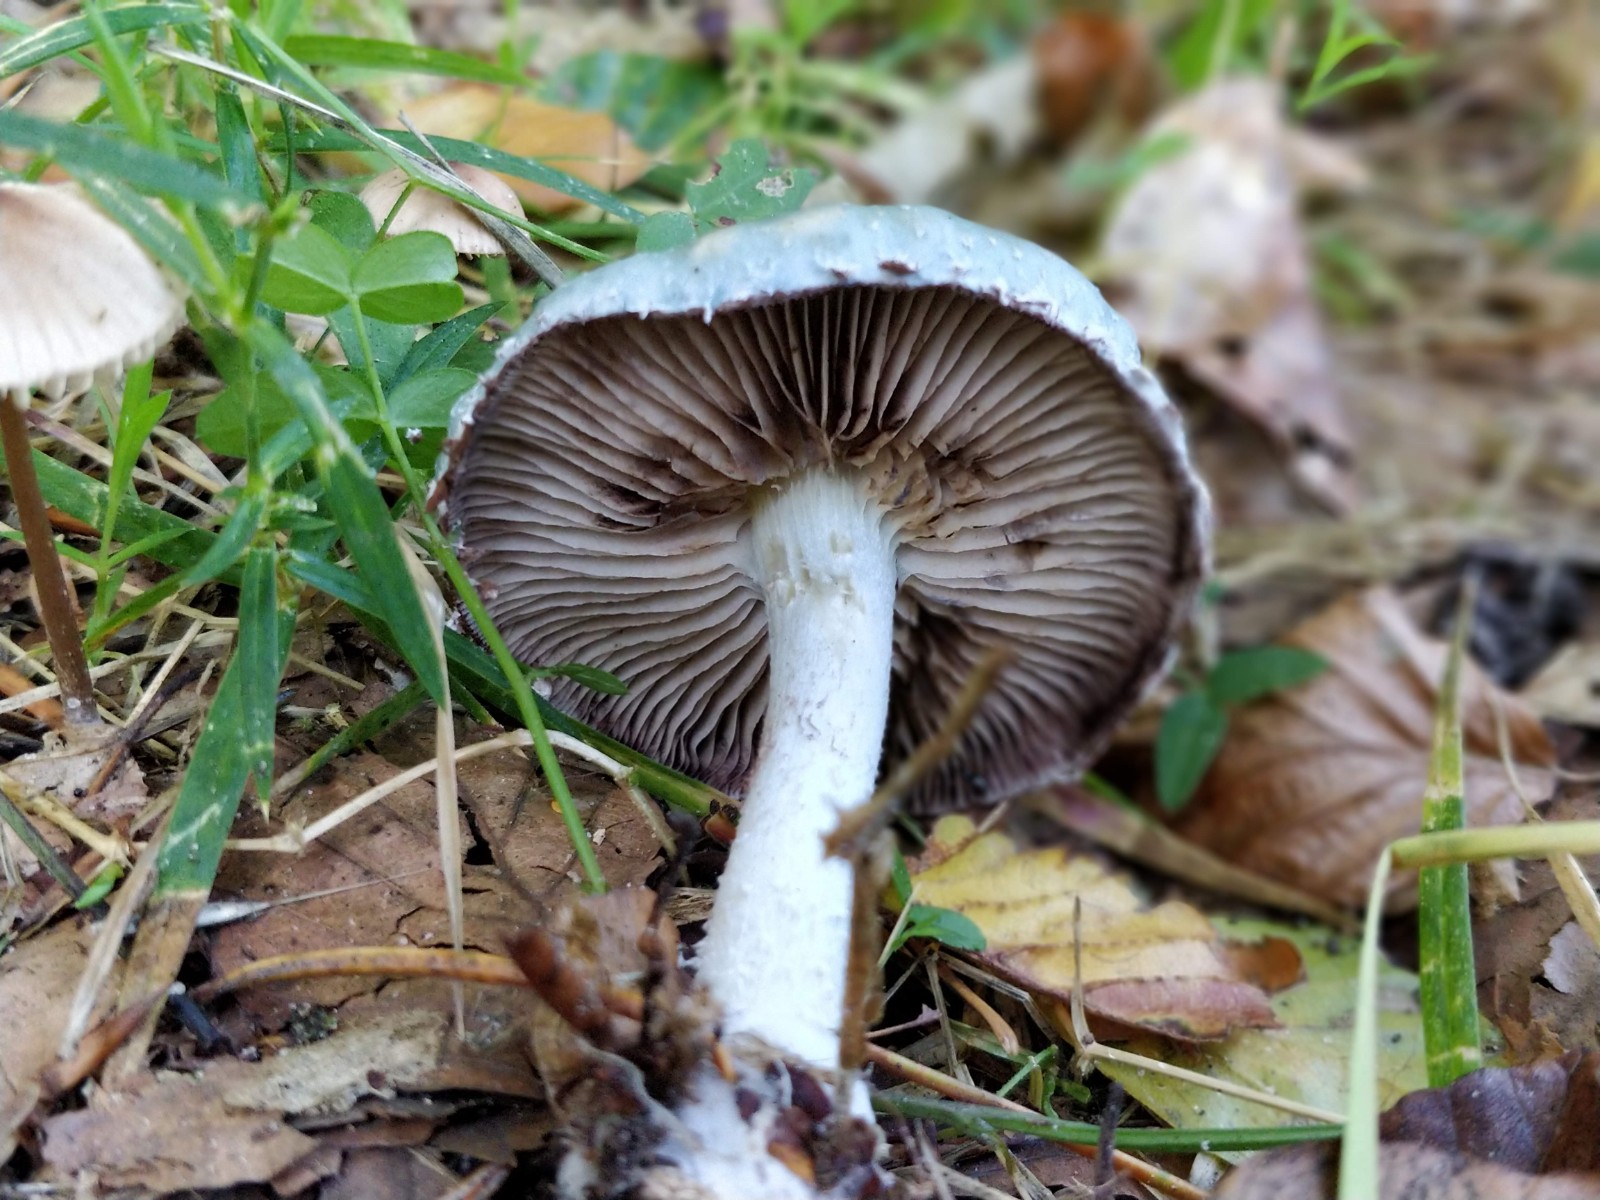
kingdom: Fungi
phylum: Basidiomycota
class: Agaricomycetes
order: Agaricales
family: Strophariaceae
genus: Stropharia
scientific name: Stropharia cyanea
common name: blågrøn bredblad
